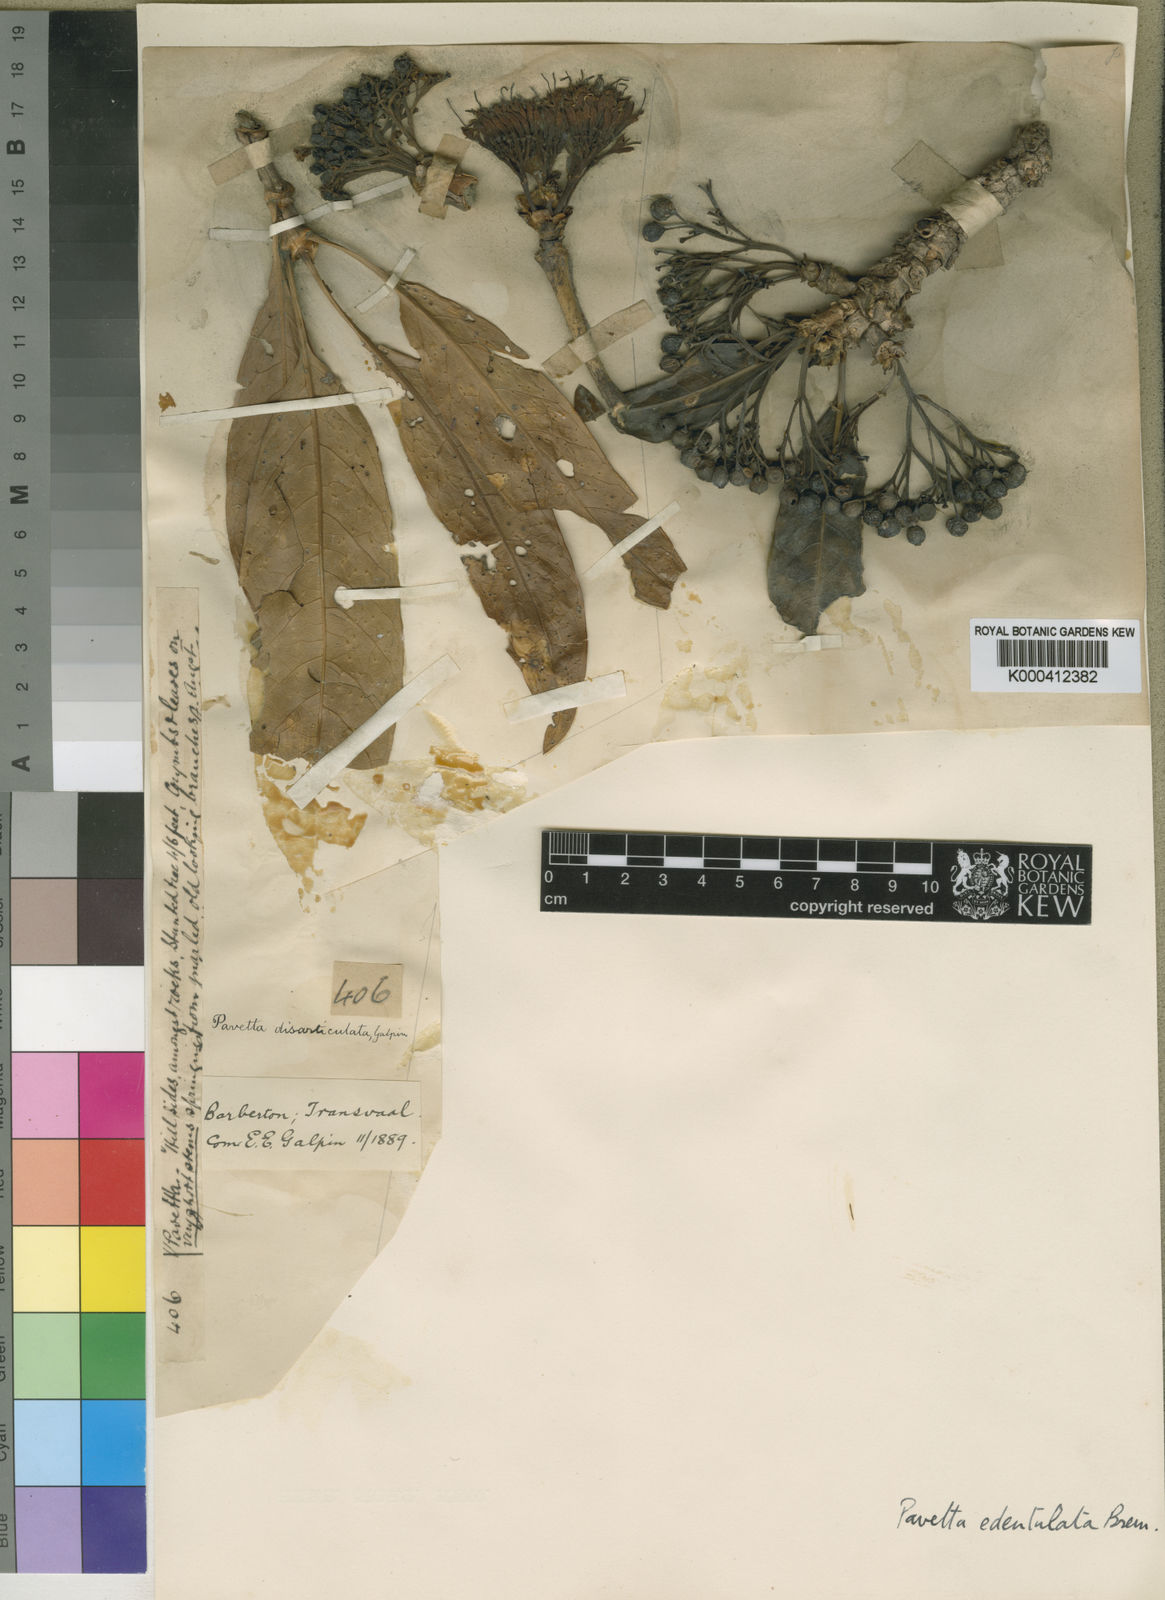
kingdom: Plantae
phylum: Tracheophyta
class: Magnoliopsida
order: Gentianales
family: Rubiaceae
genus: Pavetta
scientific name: Pavetta
